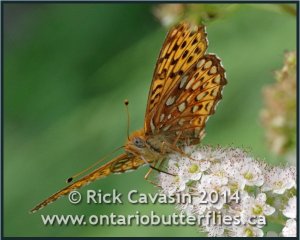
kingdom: Animalia
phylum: Arthropoda
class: Insecta
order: Lepidoptera
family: Nymphalidae
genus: Speyeria
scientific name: Speyeria atlantis
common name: Atlantis Fritillary
